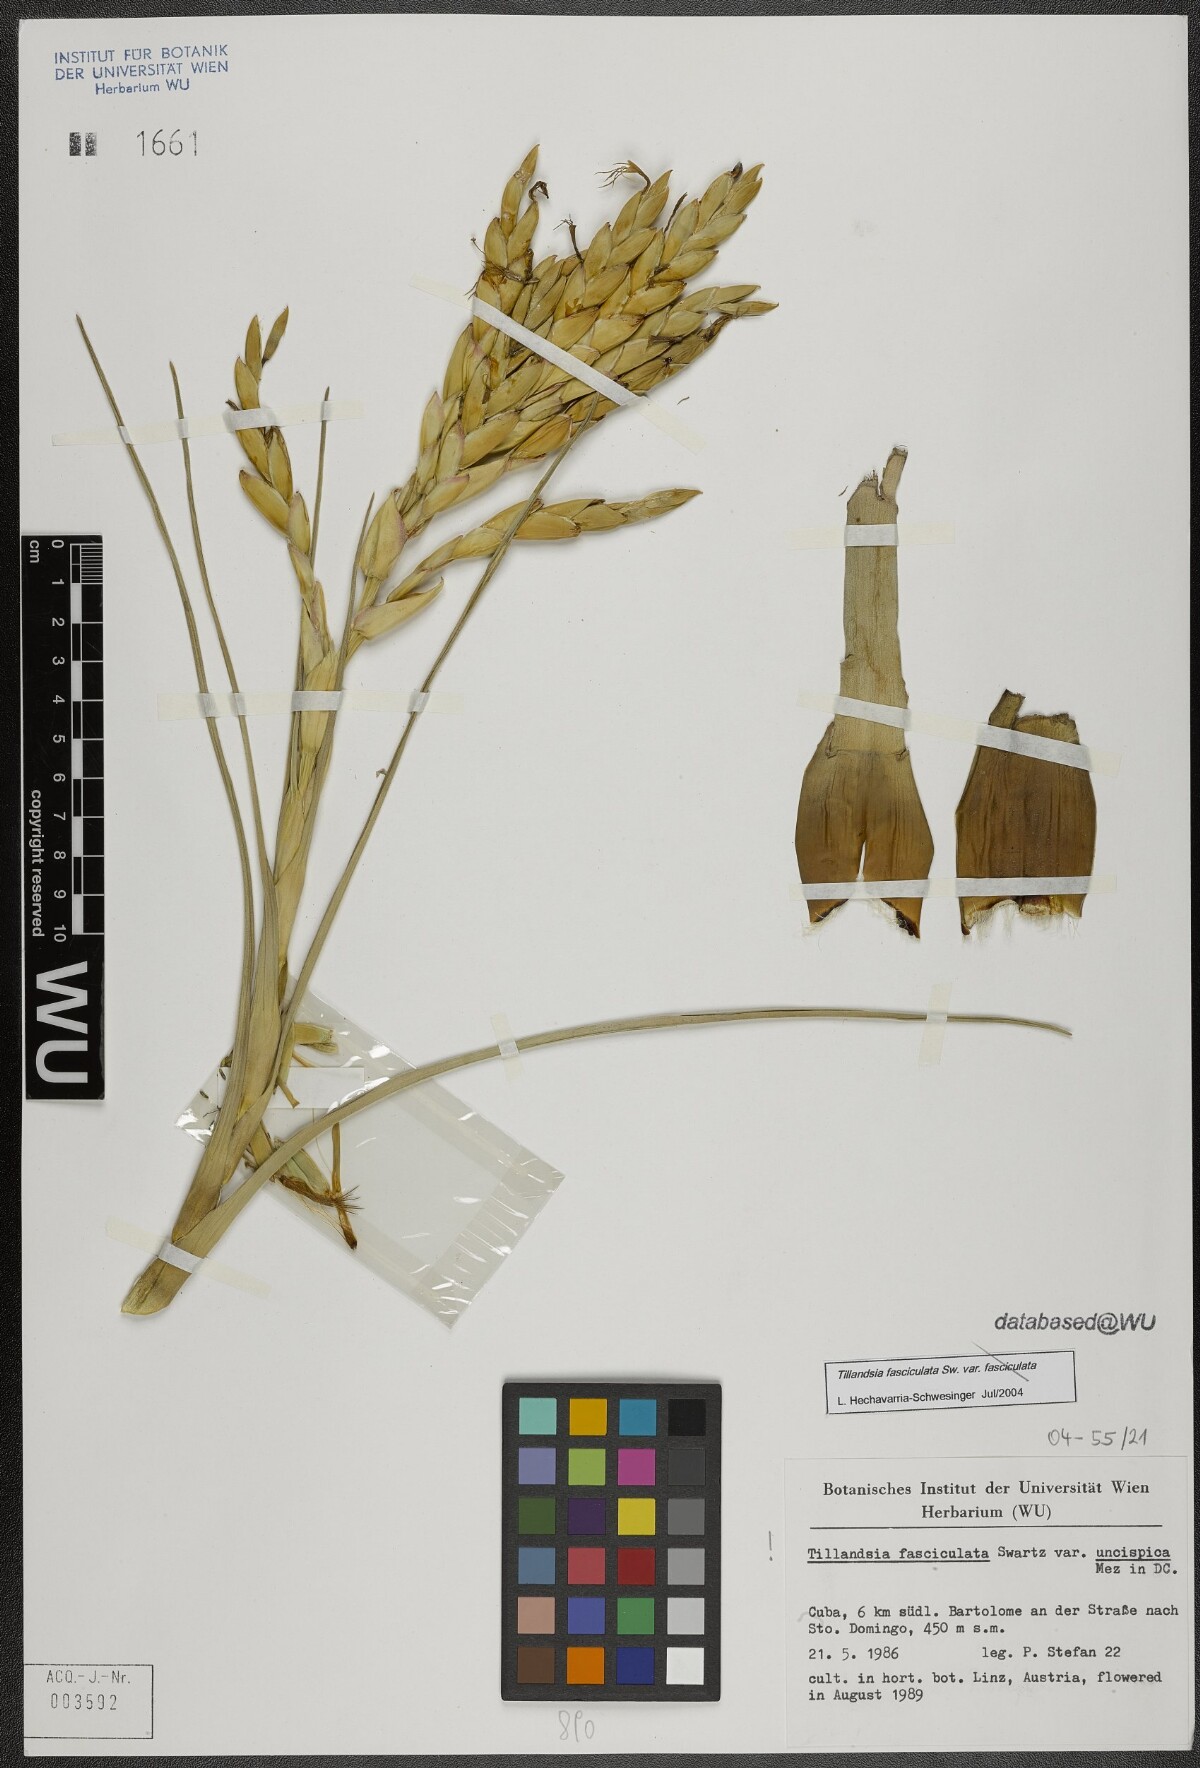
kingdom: Plantae
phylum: Tracheophyta
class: Liliopsida
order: Poales
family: Bromeliaceae
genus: Tillandsia
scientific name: Tillandsia fasciculata
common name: Giant airplant
